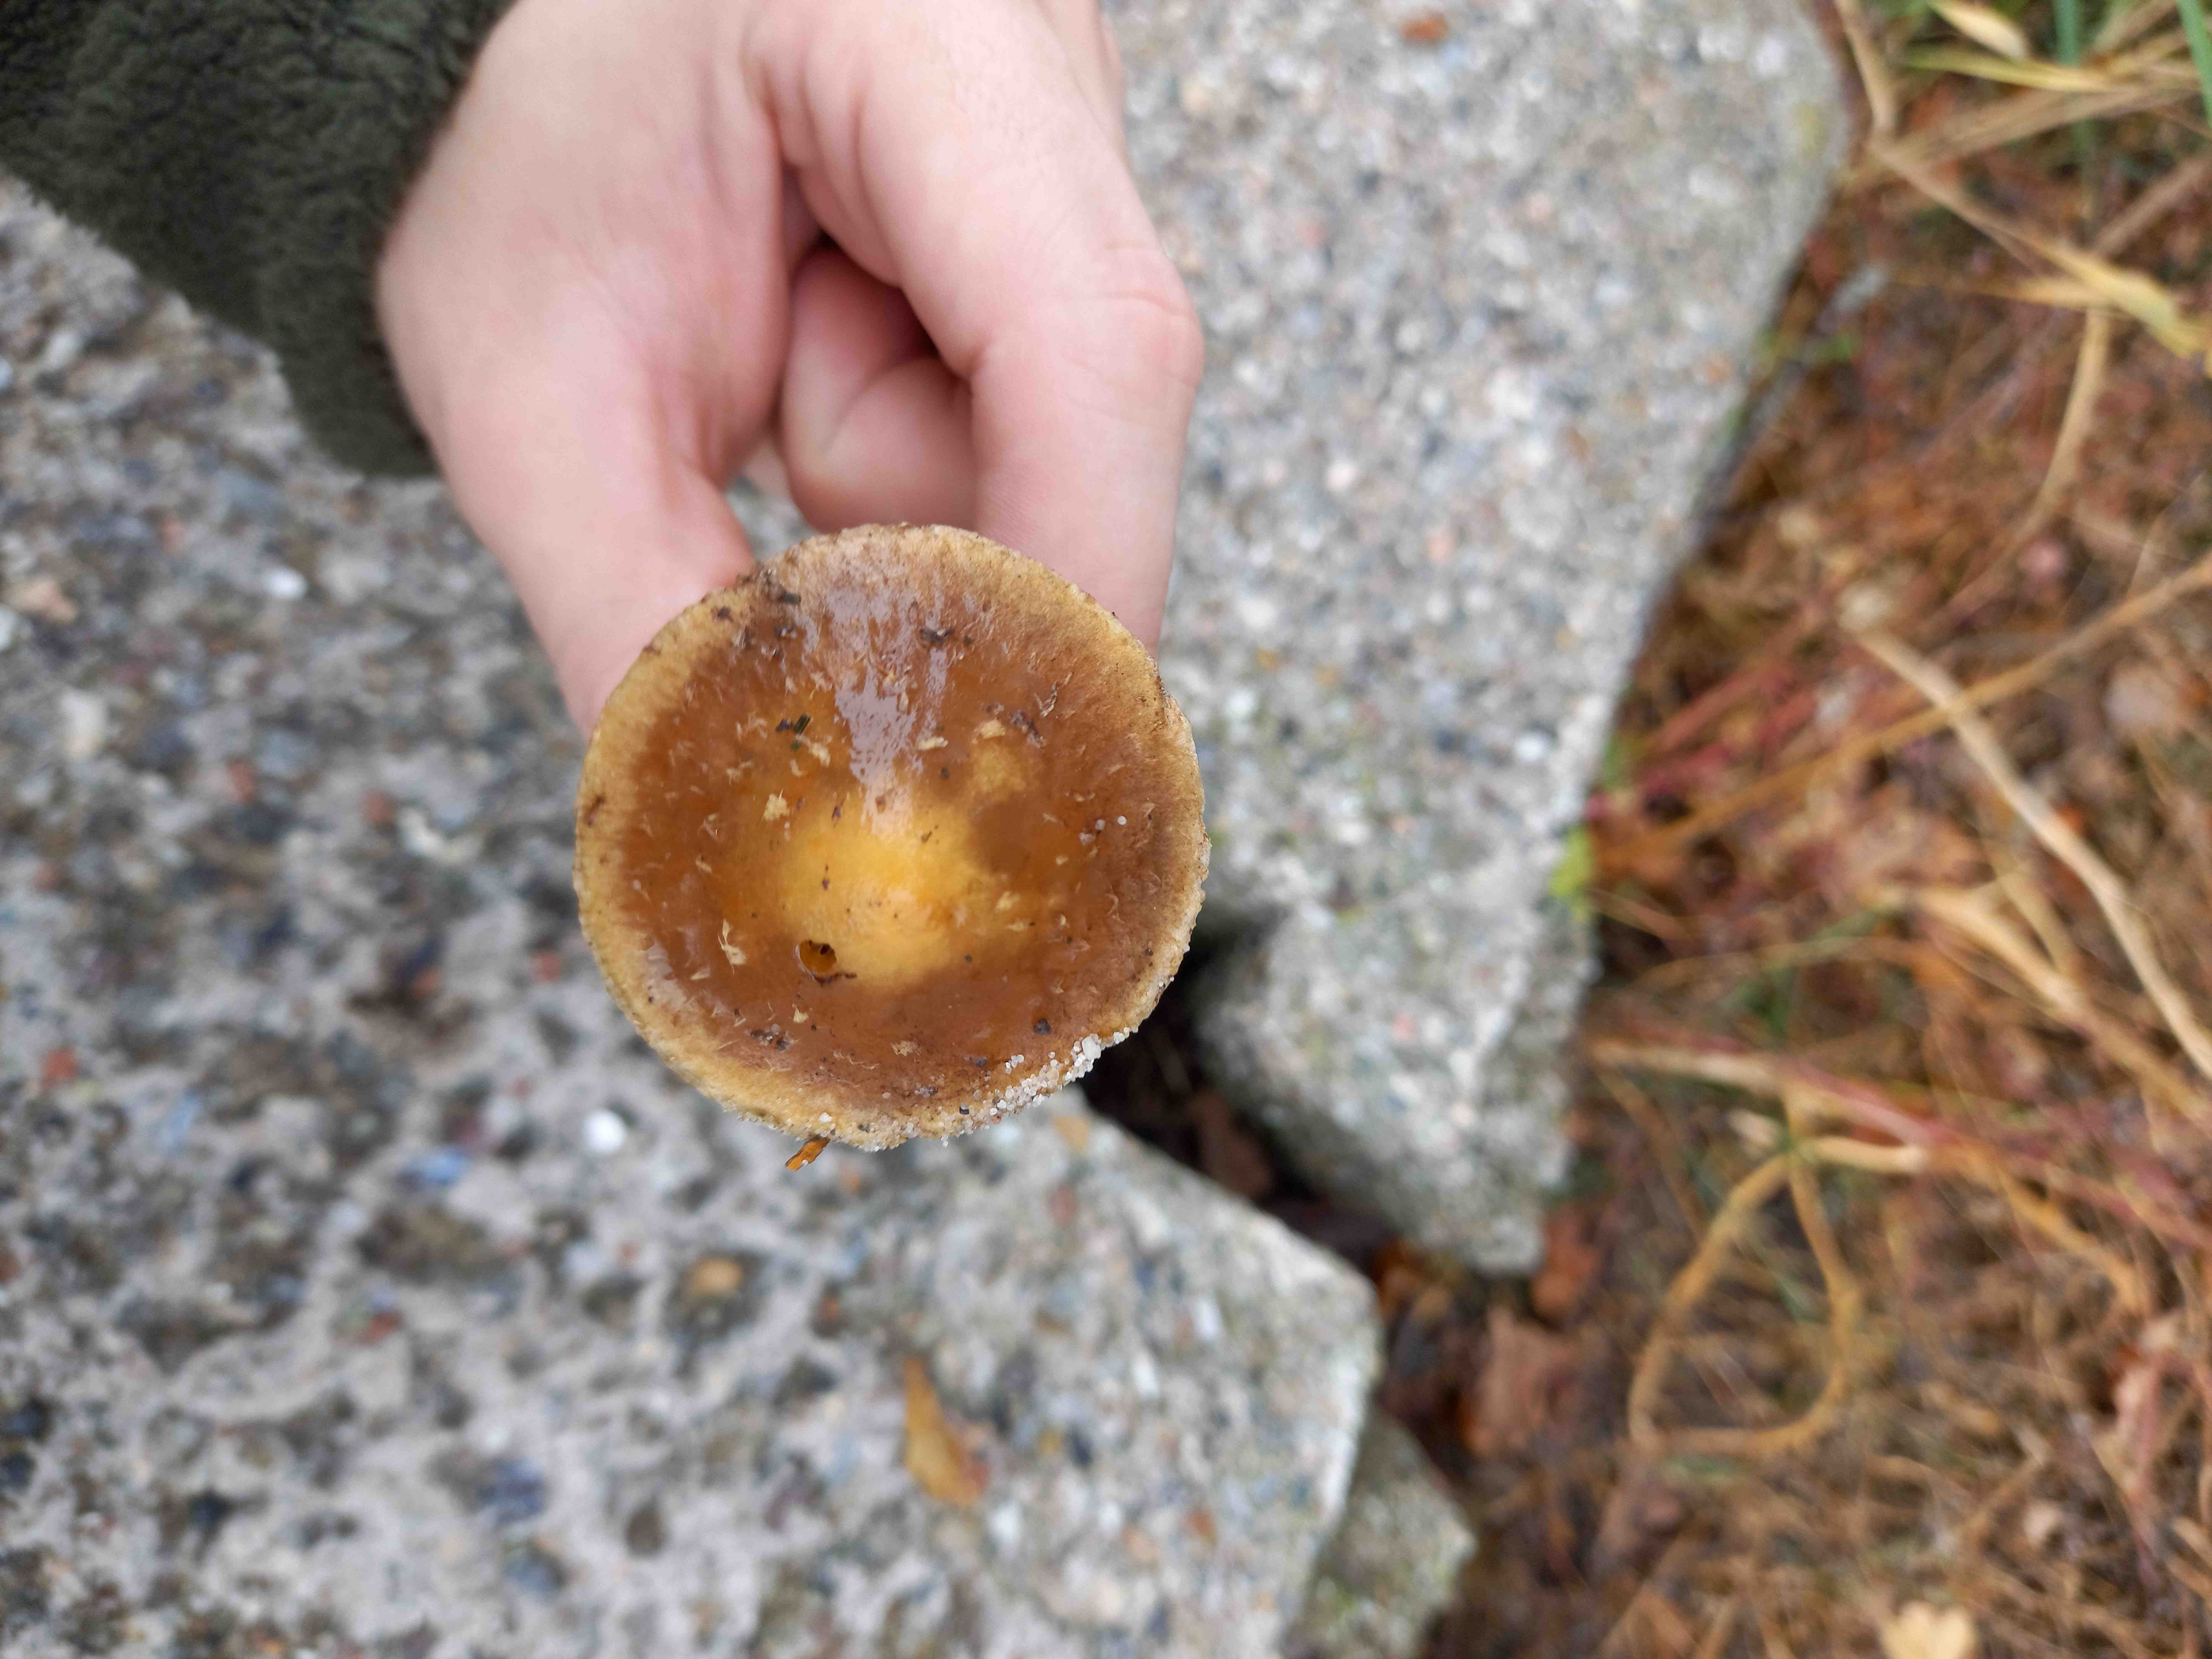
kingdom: Fungi
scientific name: Fungi
